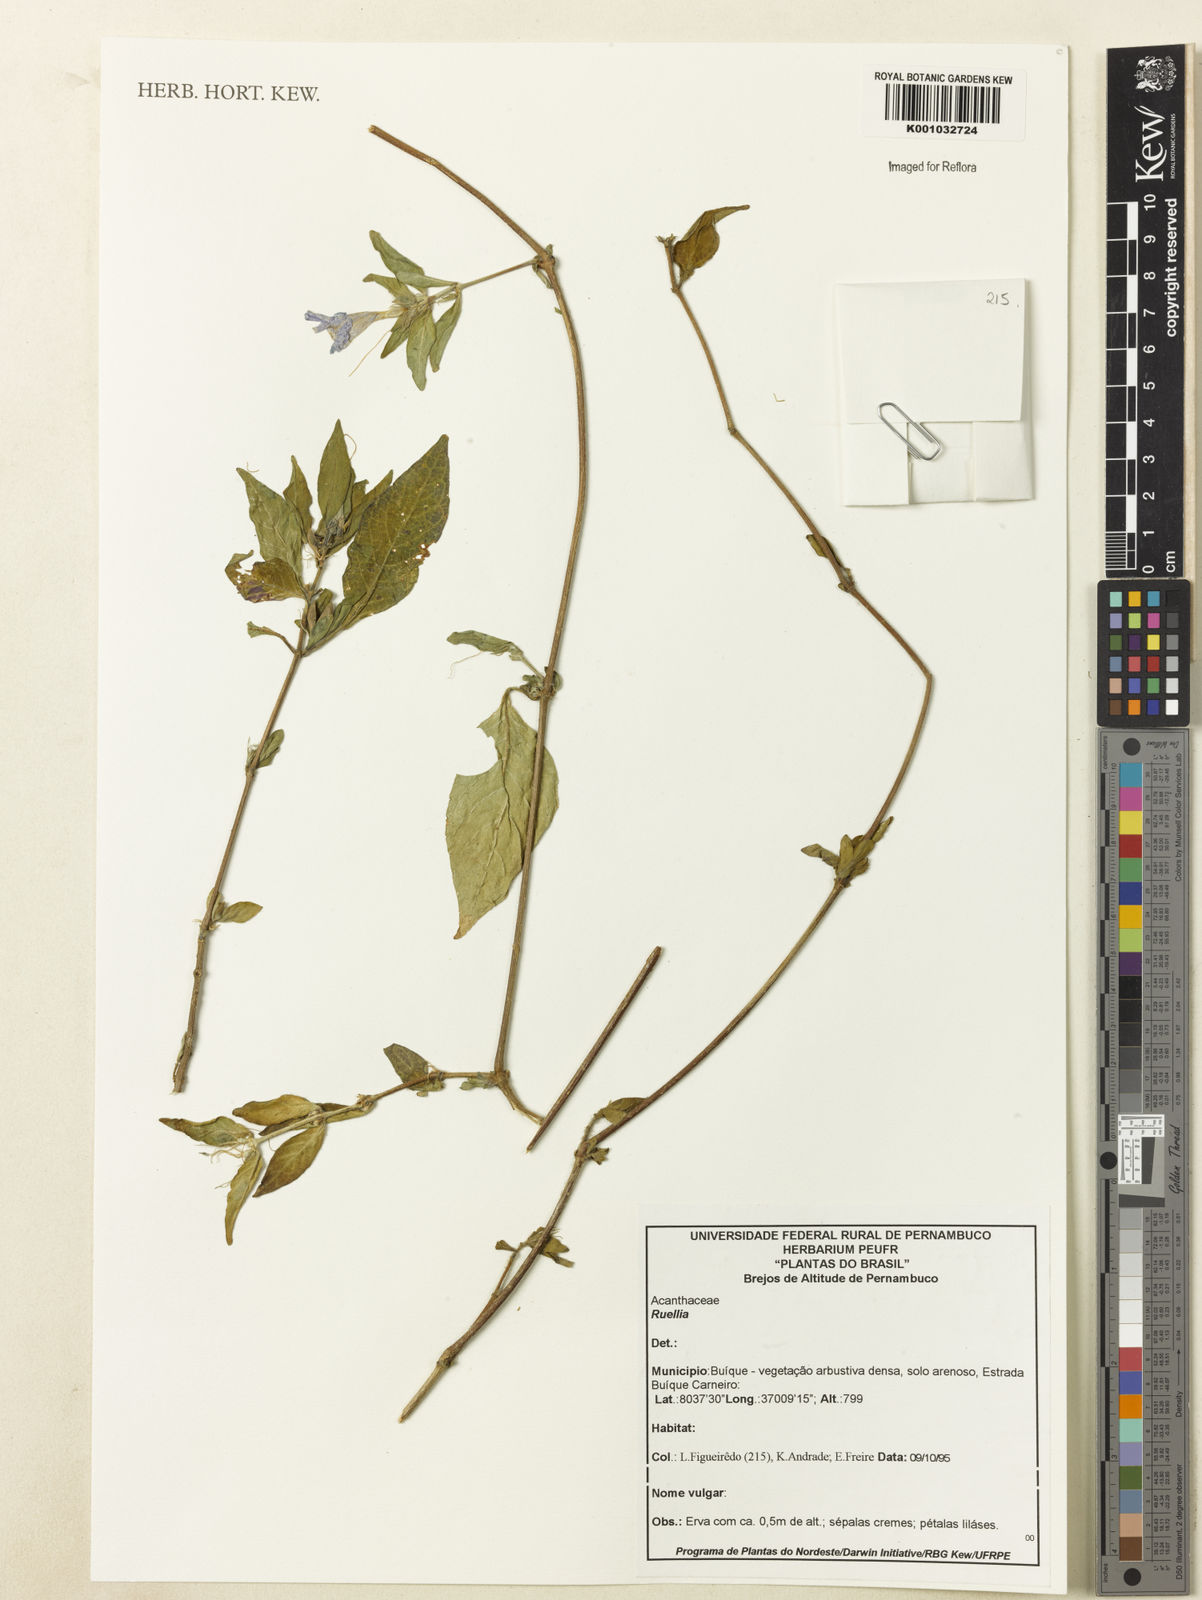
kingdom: Plantae
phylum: Tracheophyta
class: Magnoliopsida
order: Lamiales
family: Acanthaceae
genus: Ruellia
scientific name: Ruellia
